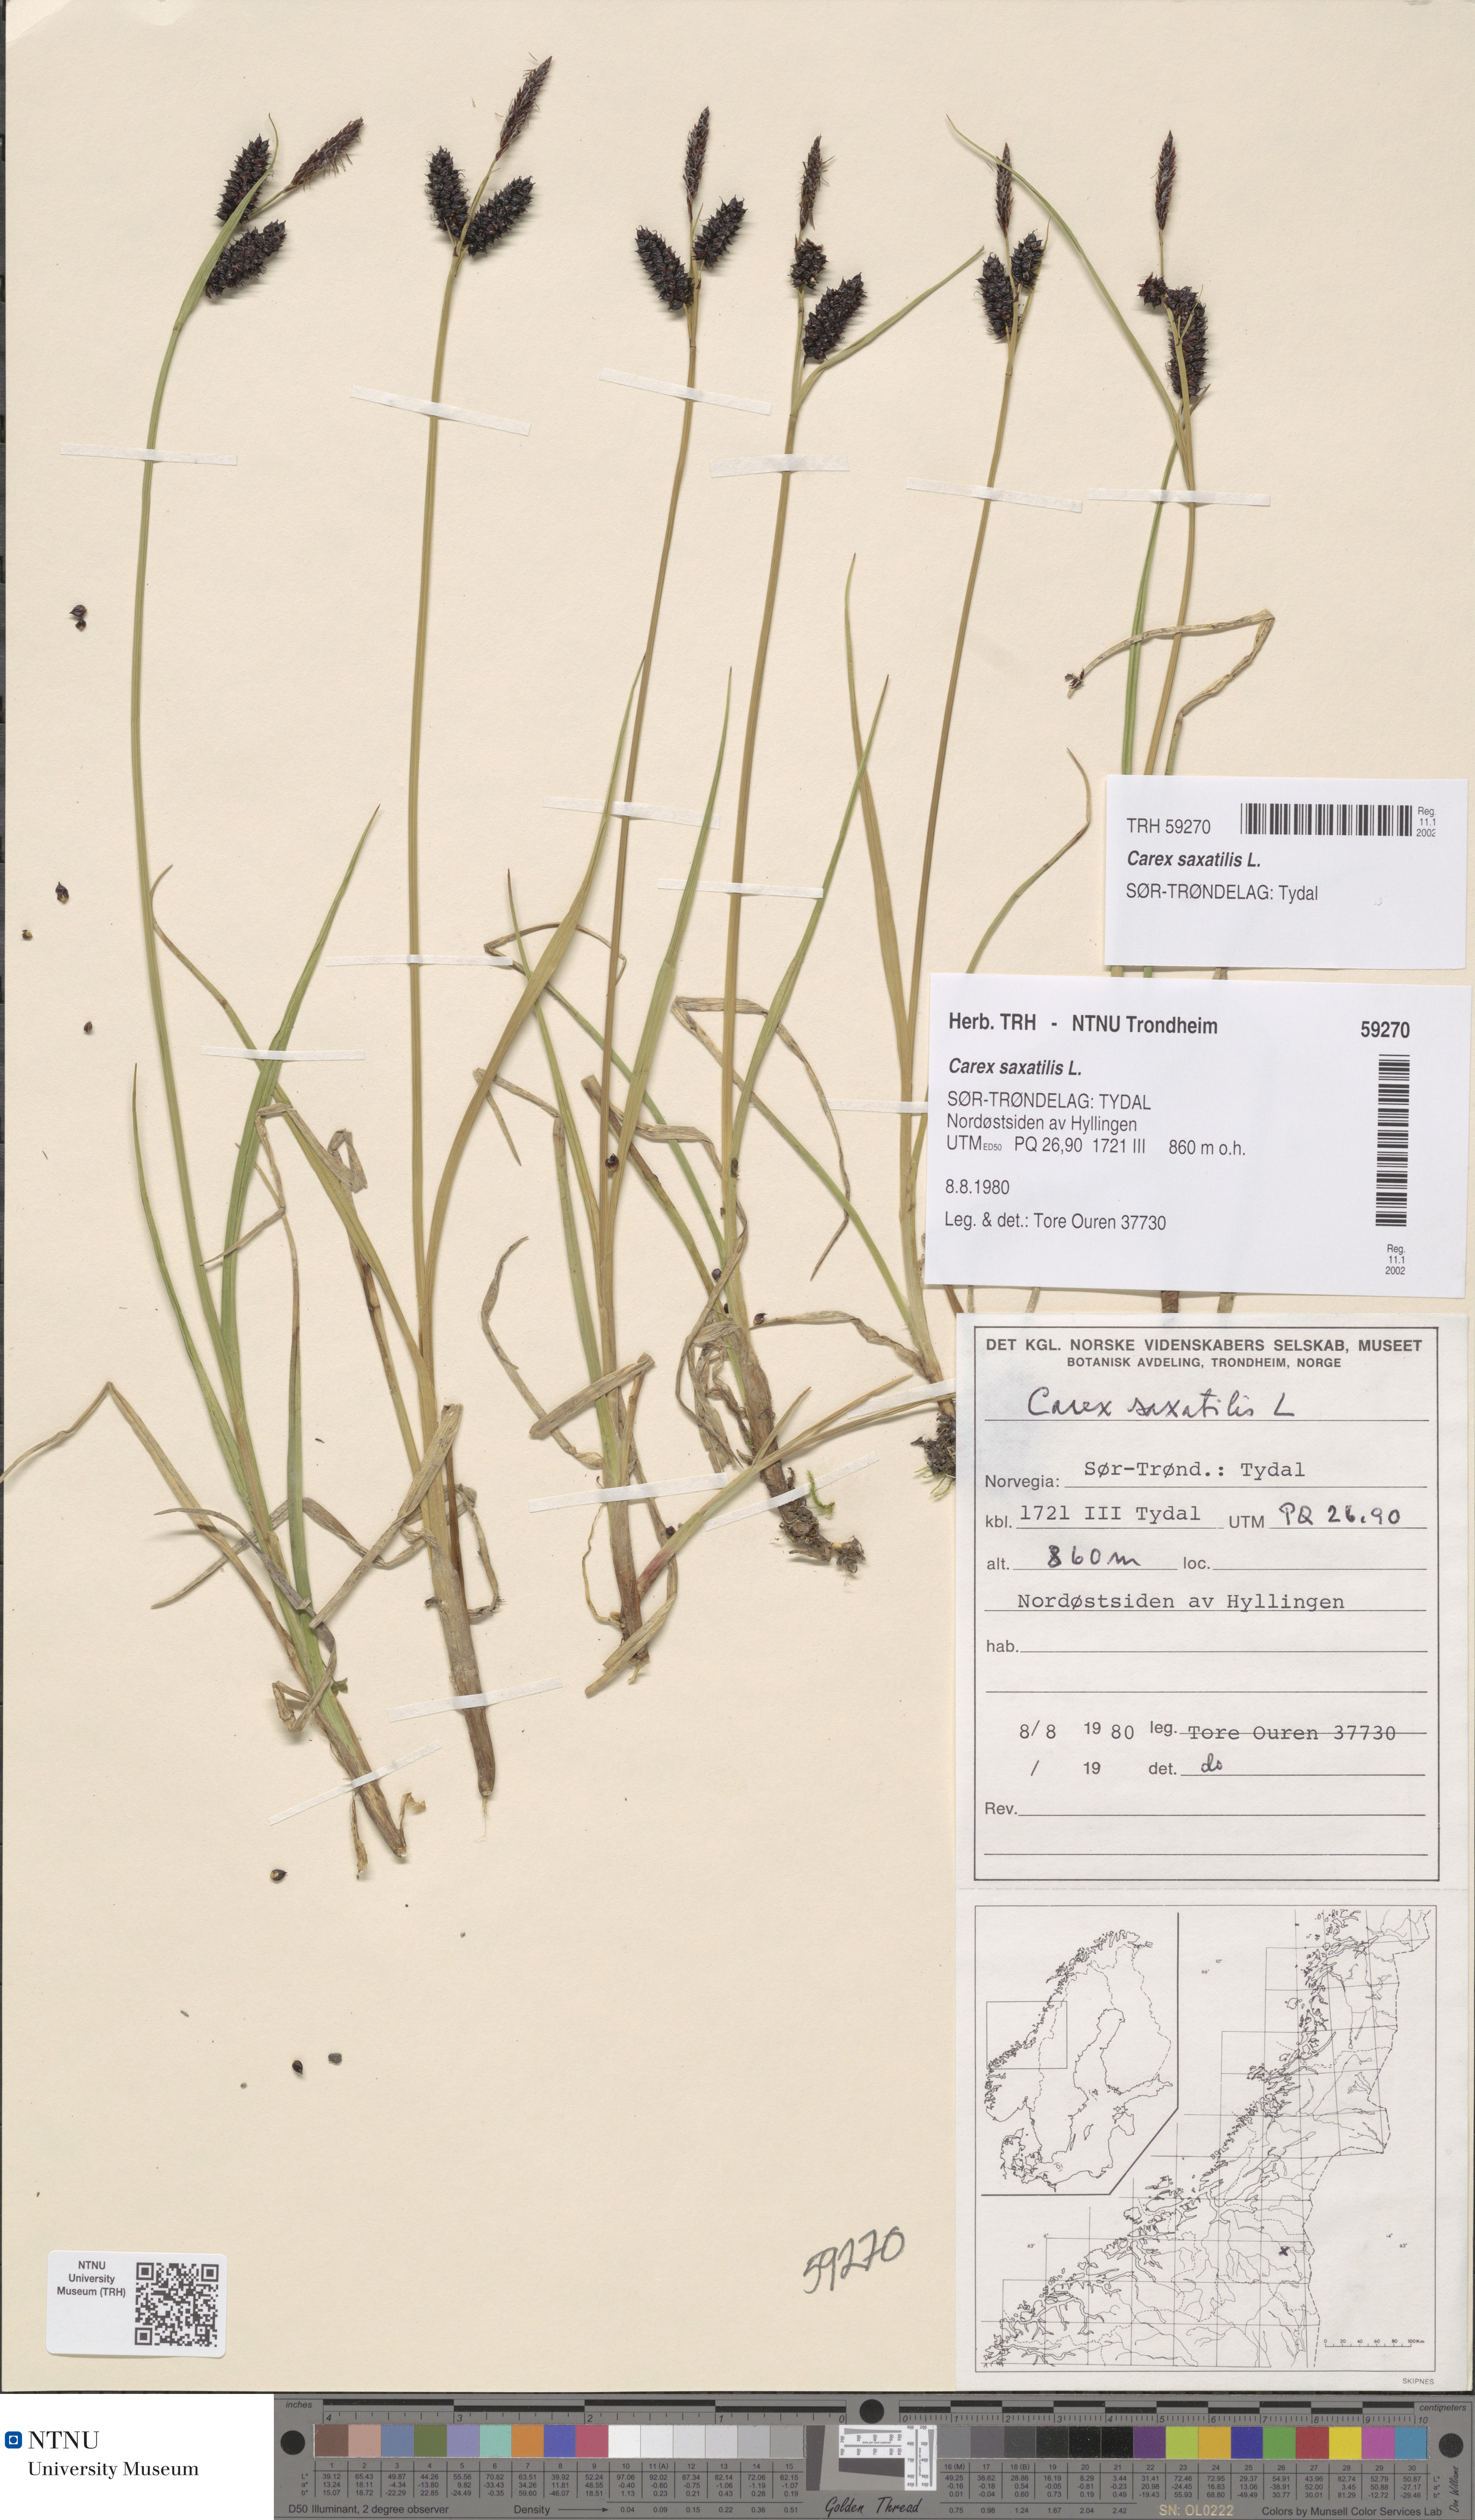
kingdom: Plantae
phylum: Tracheophyta
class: Liliopsida
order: Poales
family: Cyperaceae
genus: Carex
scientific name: Carex saxatilis
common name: Russet sedge
